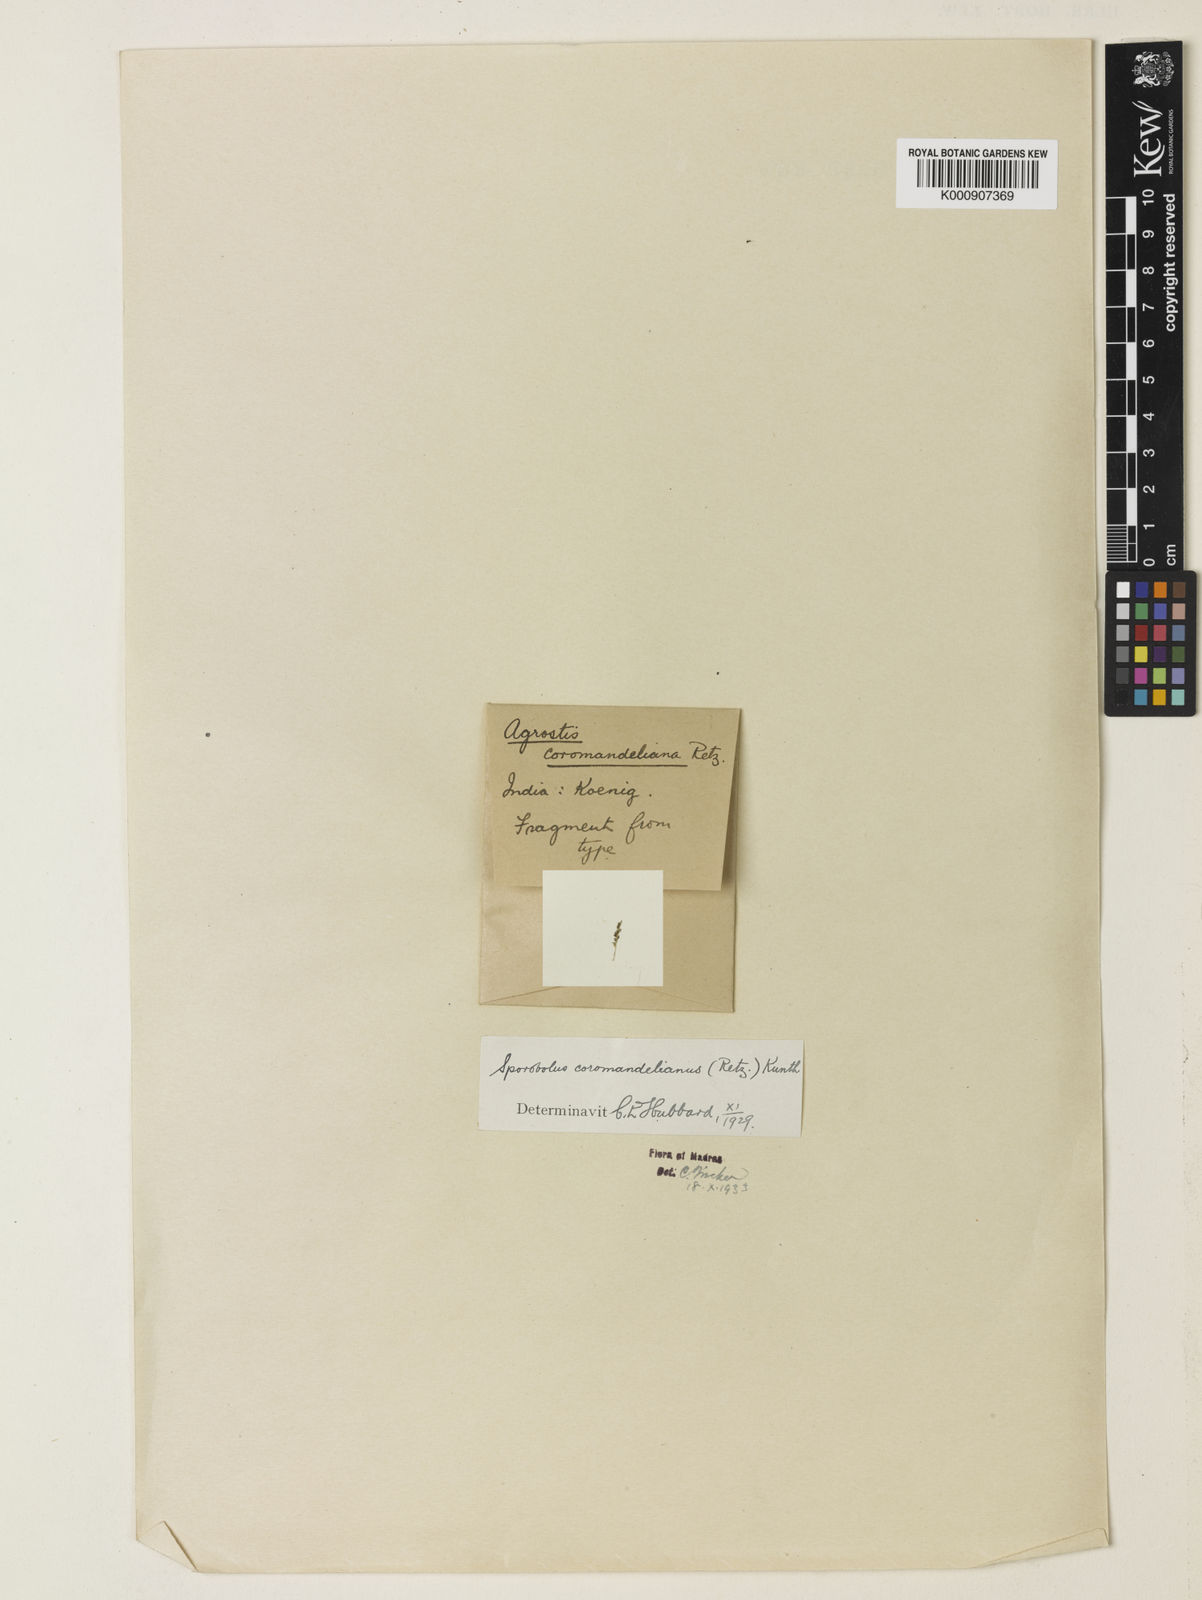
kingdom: Plantae
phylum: Tracheophyta
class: Liliopsida
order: Poales
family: Poaceae
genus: Sporobolus
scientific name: Sporobolus coromandelianus
